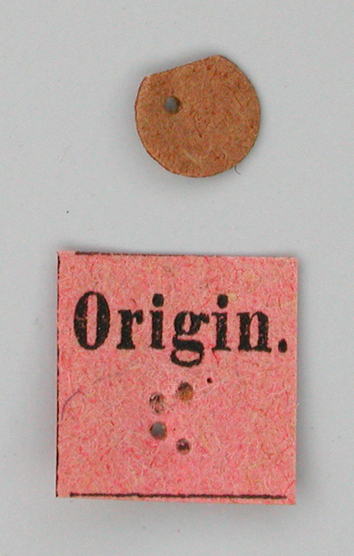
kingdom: Animalia
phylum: Arthropoda
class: Insecta
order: Lepidoptera
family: Papilionidae
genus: Parnassius
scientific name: Parnassius staudingeri
